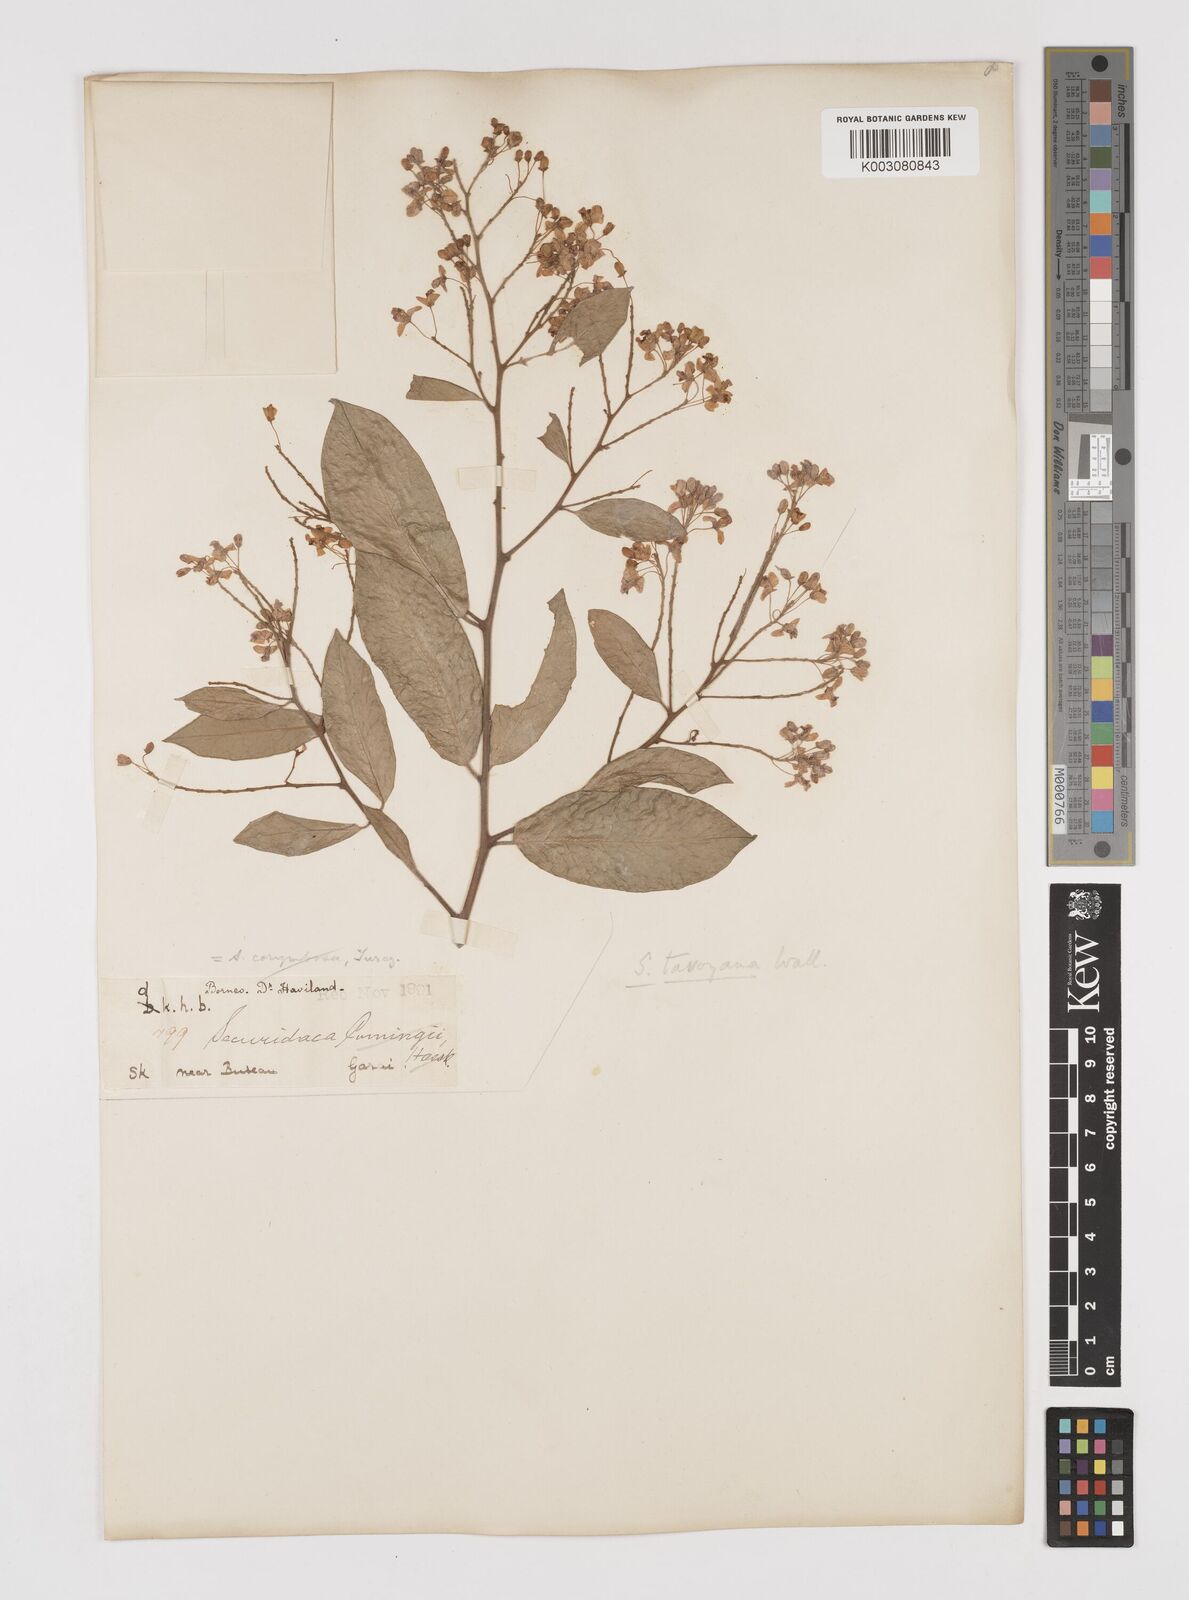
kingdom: Plantae
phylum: Tracheophyta
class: Magnoliopsida
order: Fabales
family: Polygalaceae
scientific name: Polygalaceae
